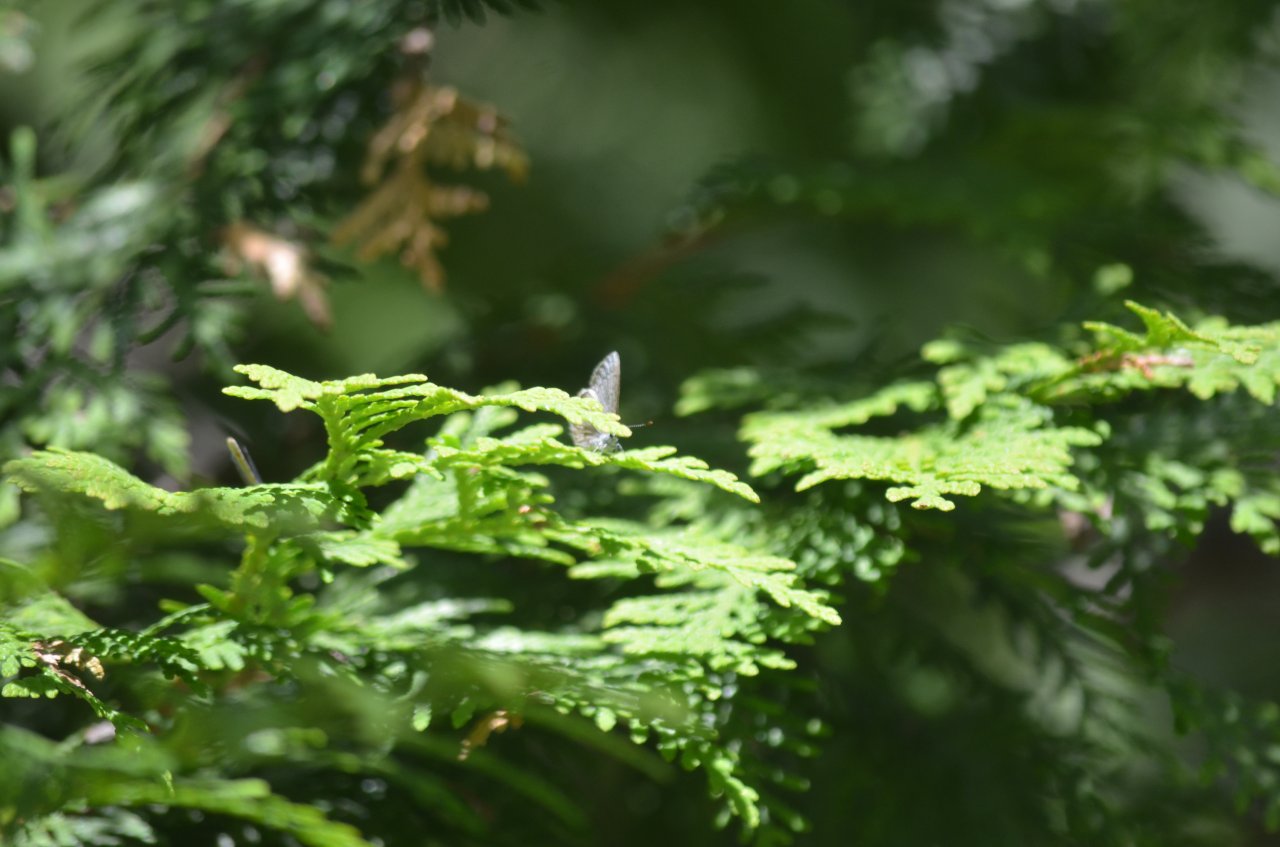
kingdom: Animalia
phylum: Arthropoda
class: Insecta
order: Lepidoptera
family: Lycaenidae
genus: Celastrina
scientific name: Celastrina
